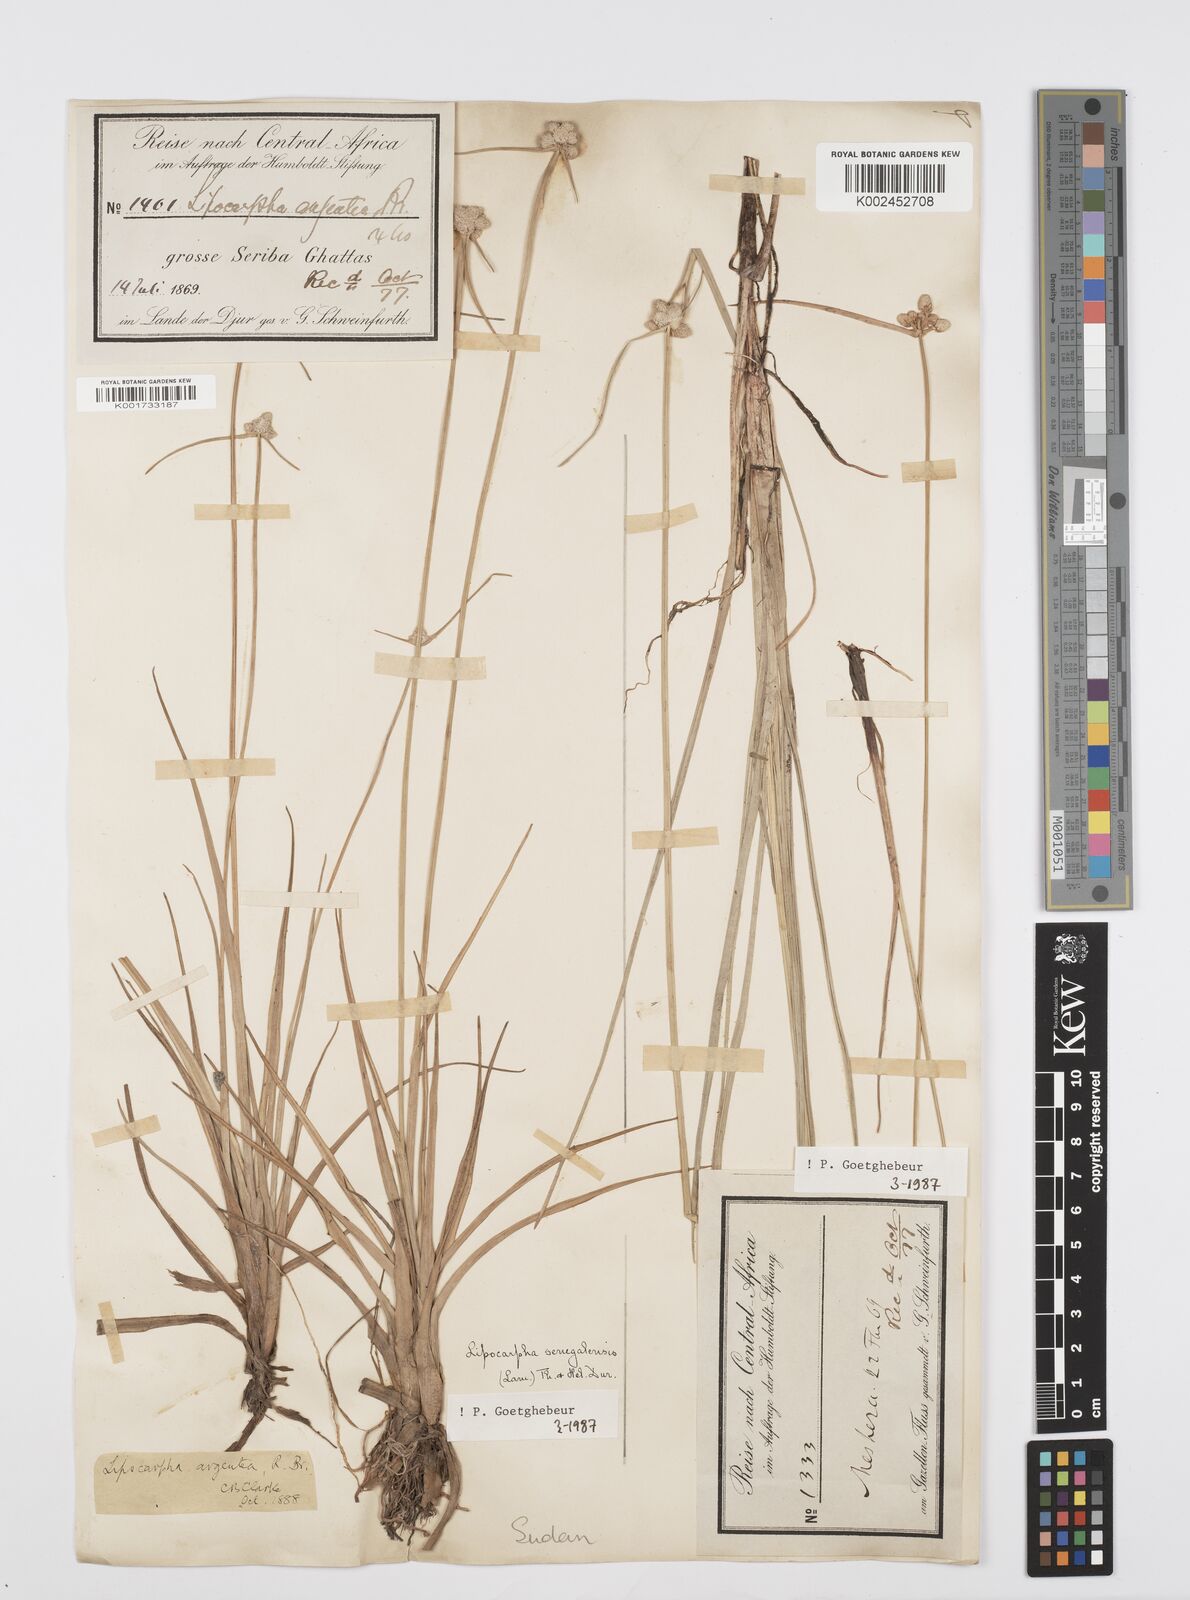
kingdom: Plantae
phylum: Tracheophyta
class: Liliopsida
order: Poales
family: Cyperaceae
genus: Cyperus
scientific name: Cyperus albescens
